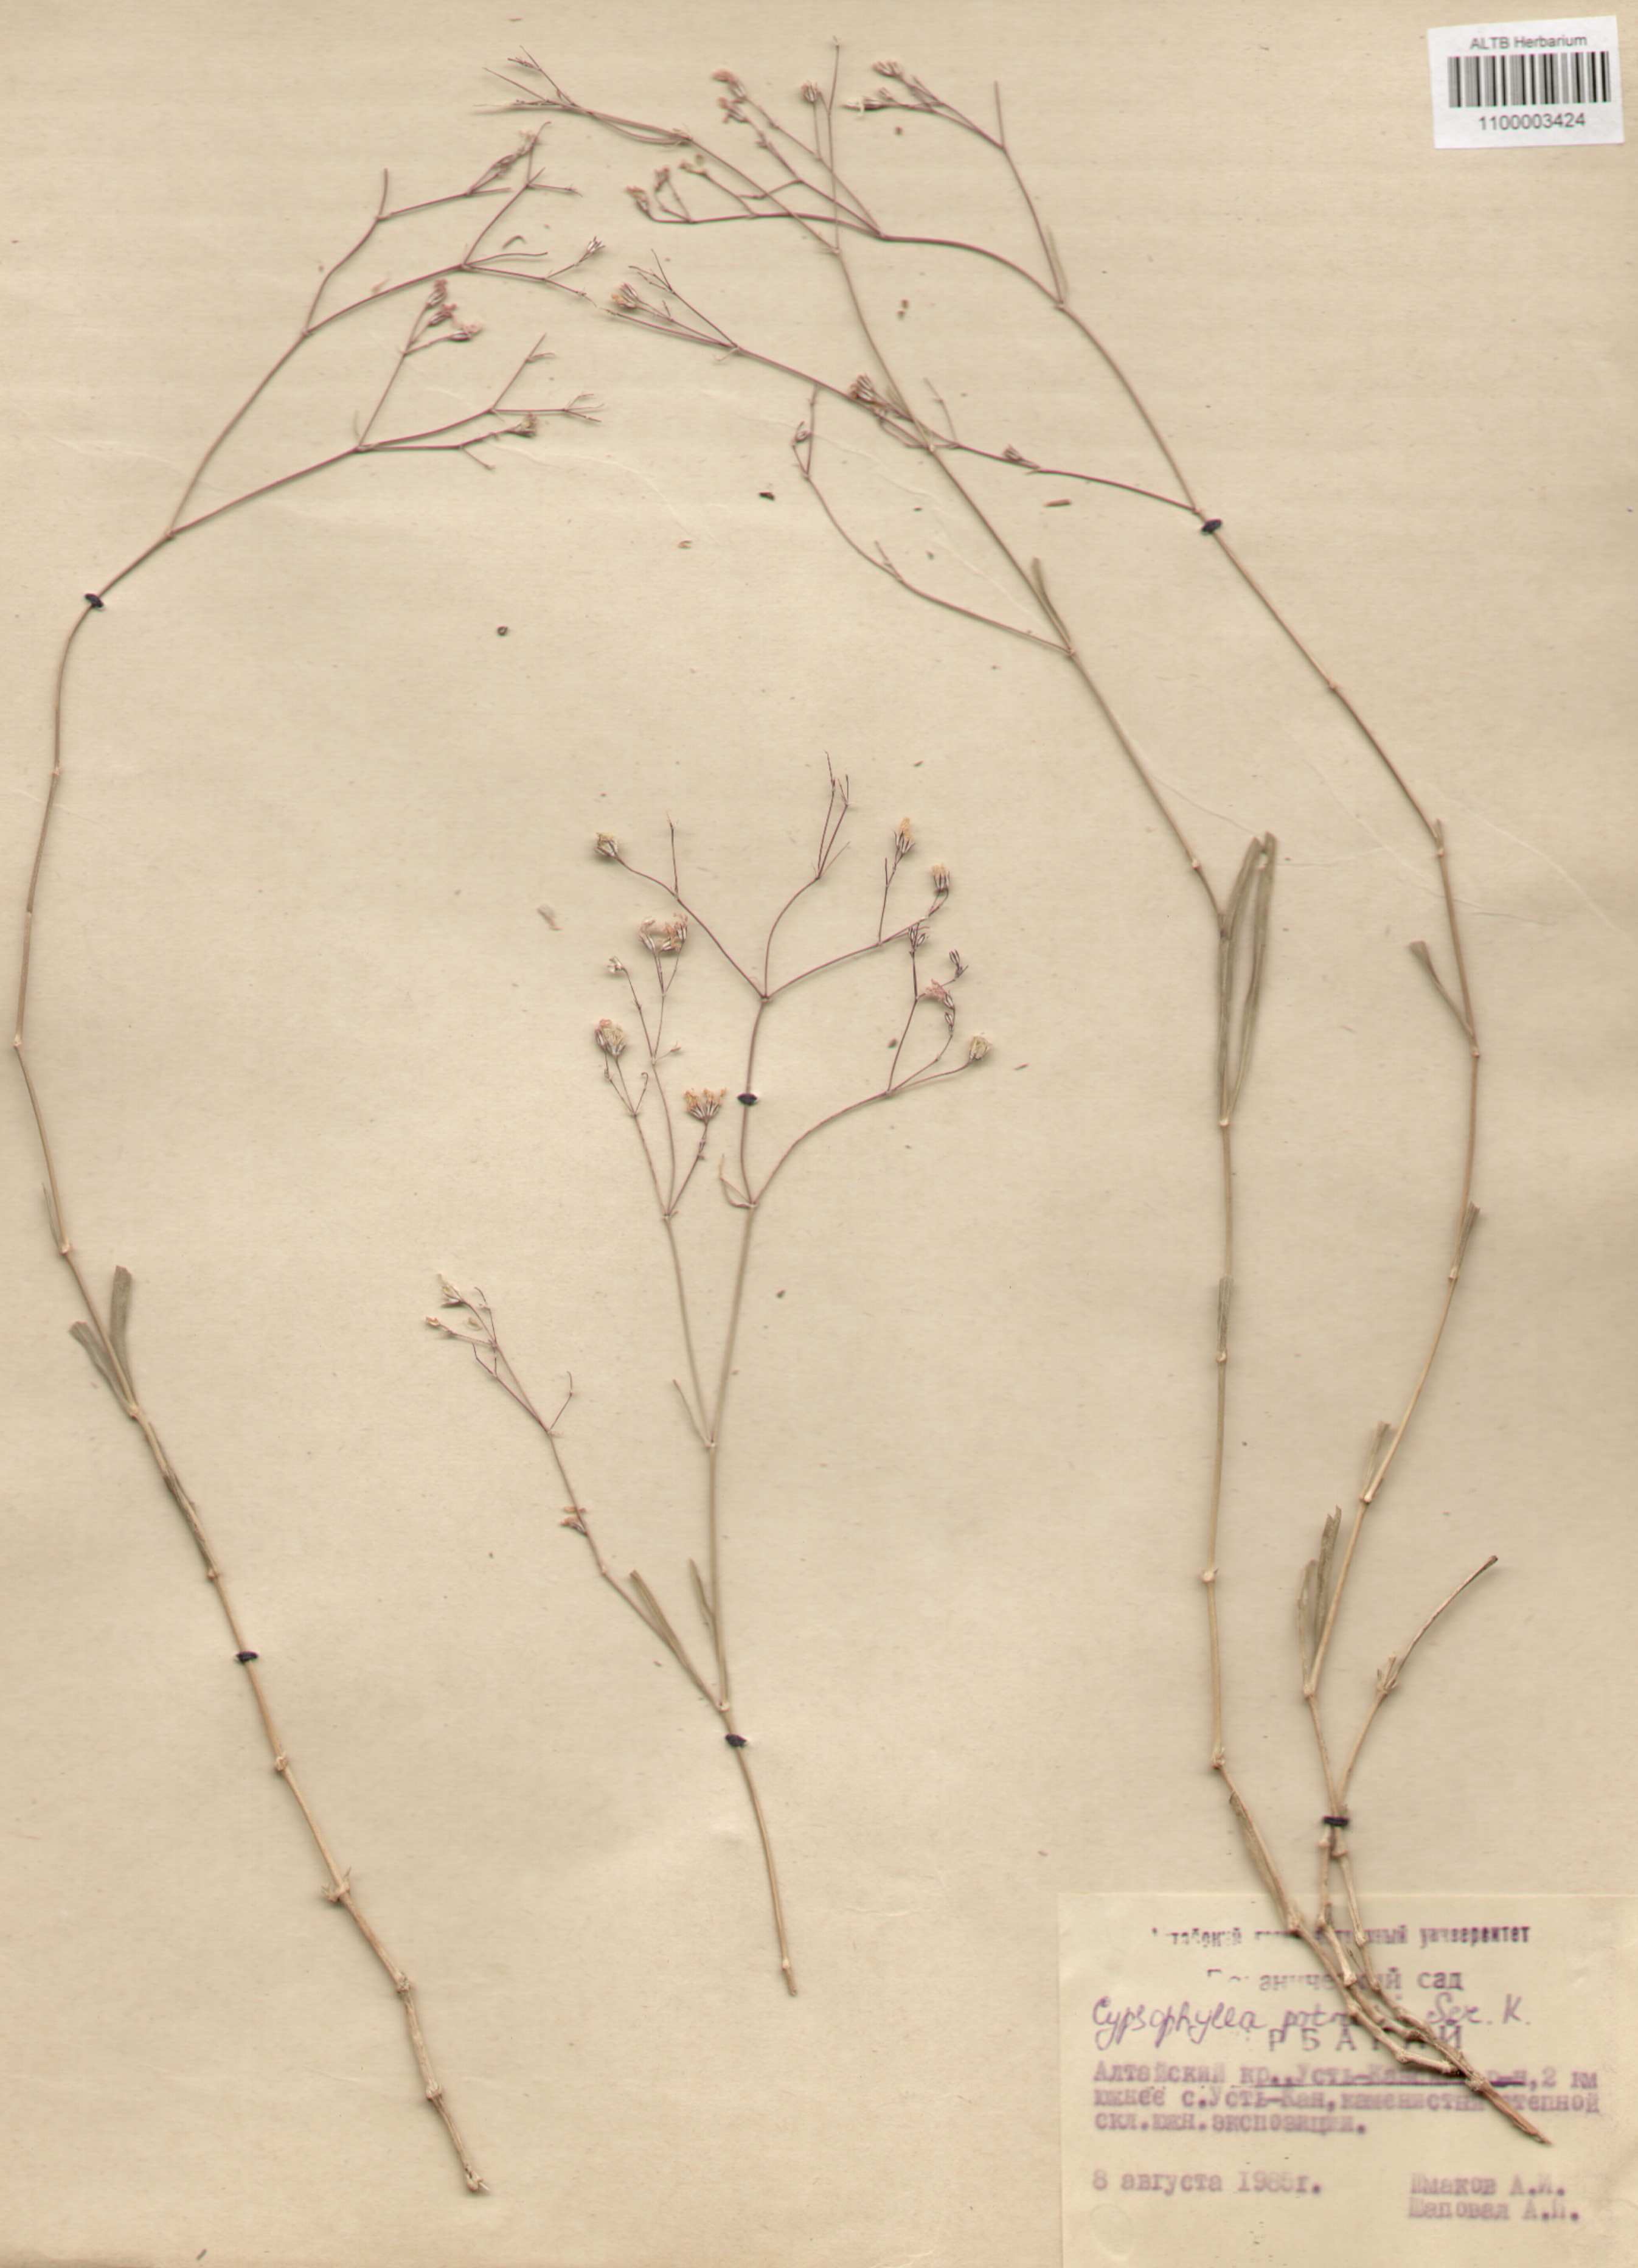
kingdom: Plantae
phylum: Tracheophyta
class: Magnoliopsida
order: Caryophyllales
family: Caryophyllaceae
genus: Gypsophila
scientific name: Gypsophila patrinii
